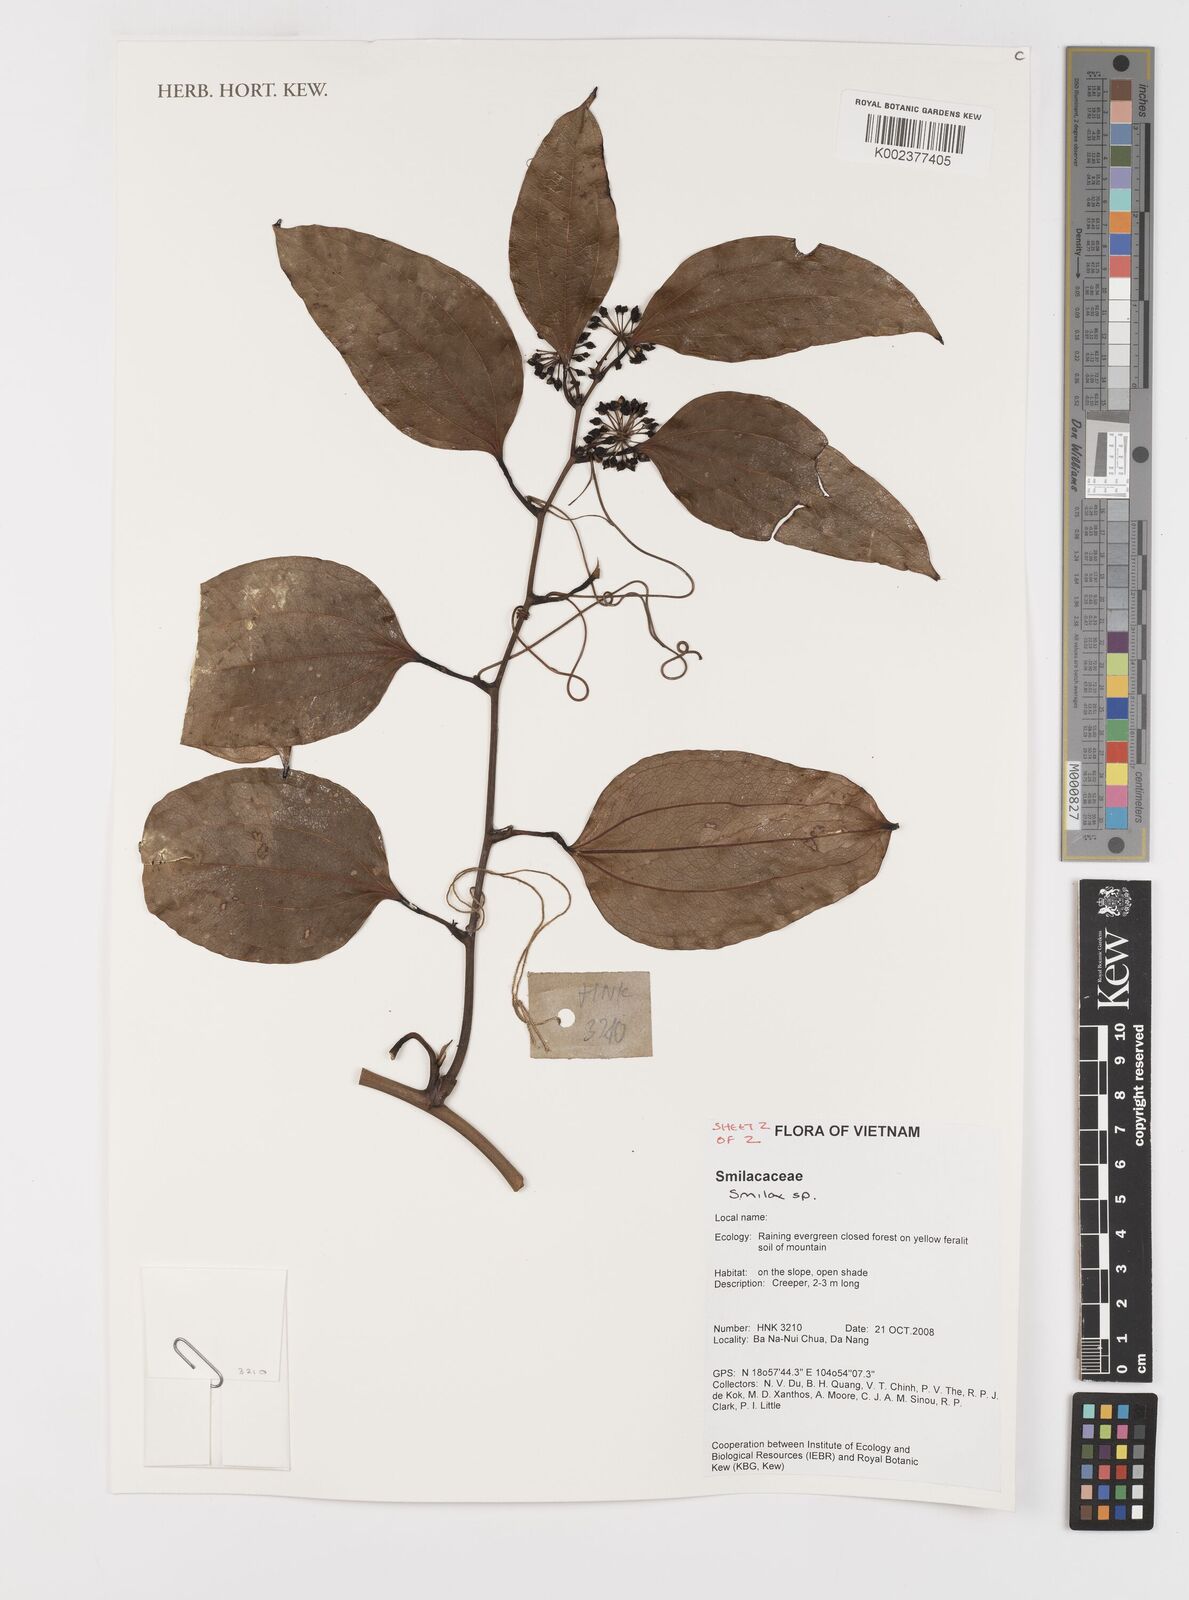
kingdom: Plantae
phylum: Tracheophyta
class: Liliopsida
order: Liliales
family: Smilacaceae
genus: Smilax
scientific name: Smilax
